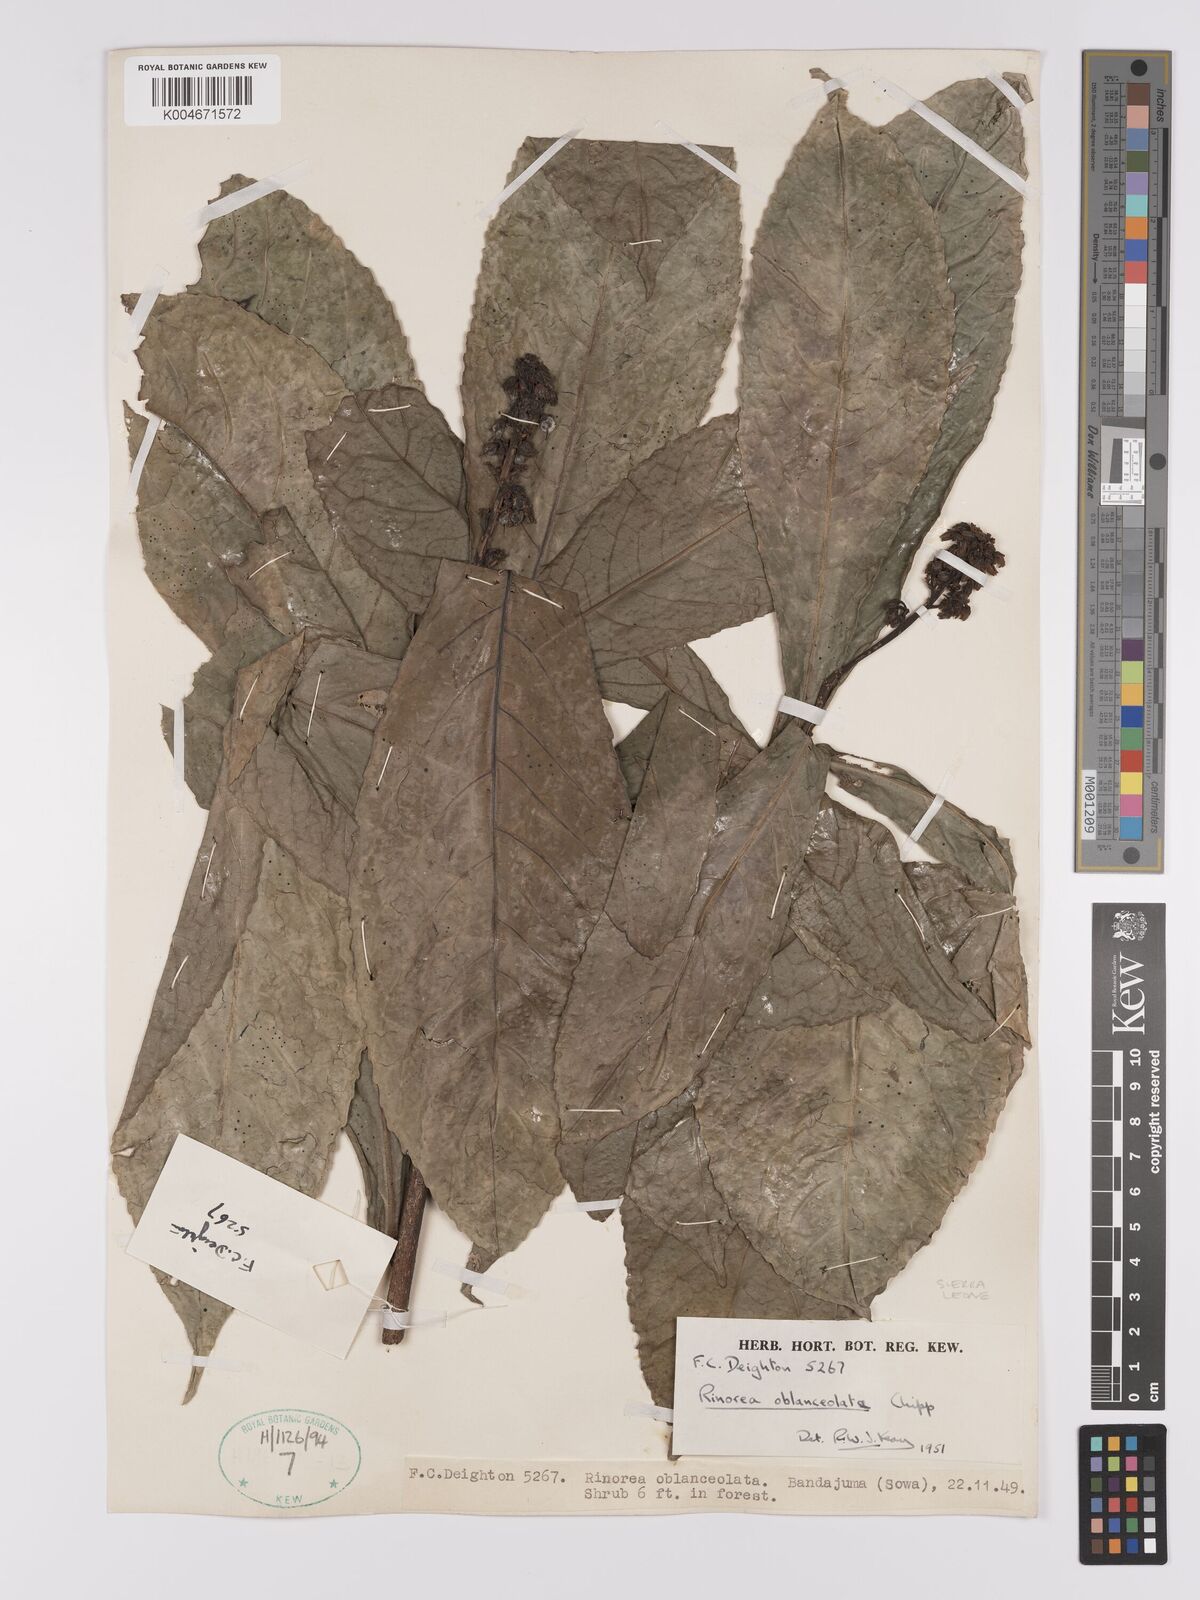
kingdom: Plantae
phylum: Tracheophyta
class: Magnoliopsida
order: Malpighiales
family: Violaceae
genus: Rinorea
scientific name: Rinorea oblanceolata
